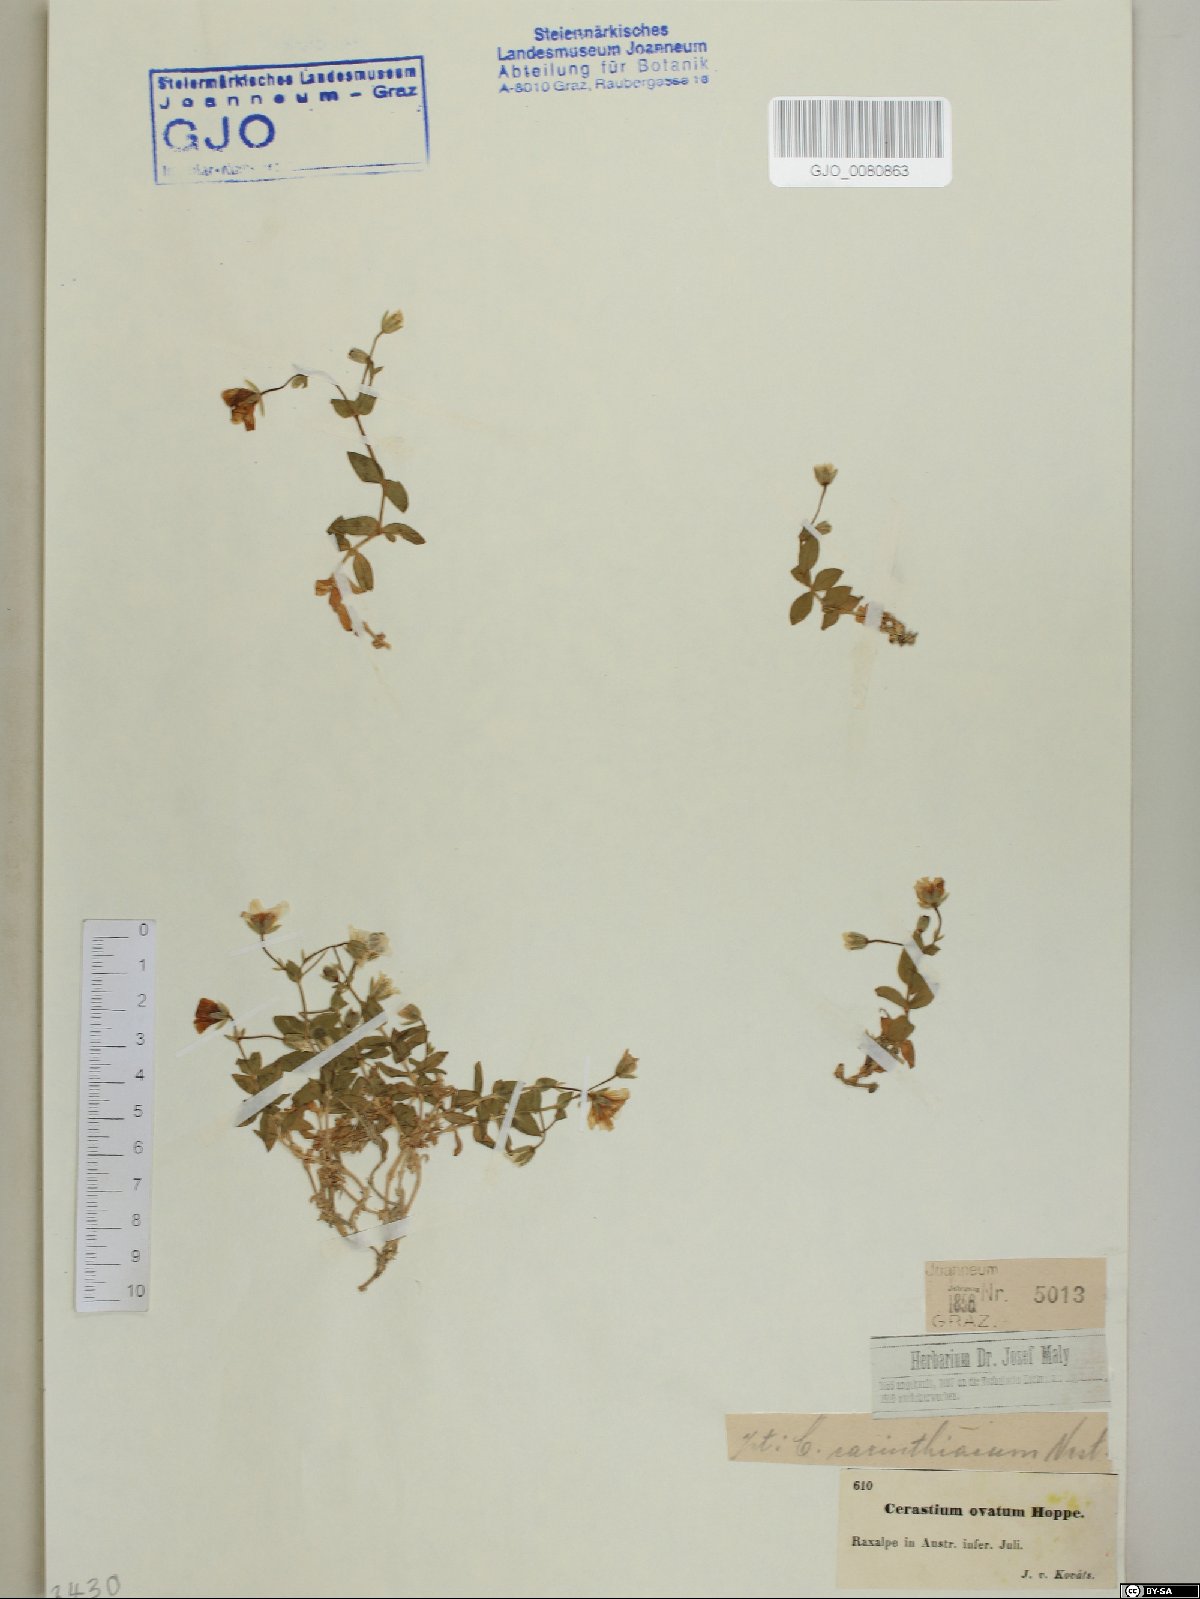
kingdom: Plantae
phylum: Tracheophyta
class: Magnoliopsida
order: Caryophyllales
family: Caryophyllaceae
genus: Cerastium
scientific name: Cerastium arvense
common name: Field mouse-ear
